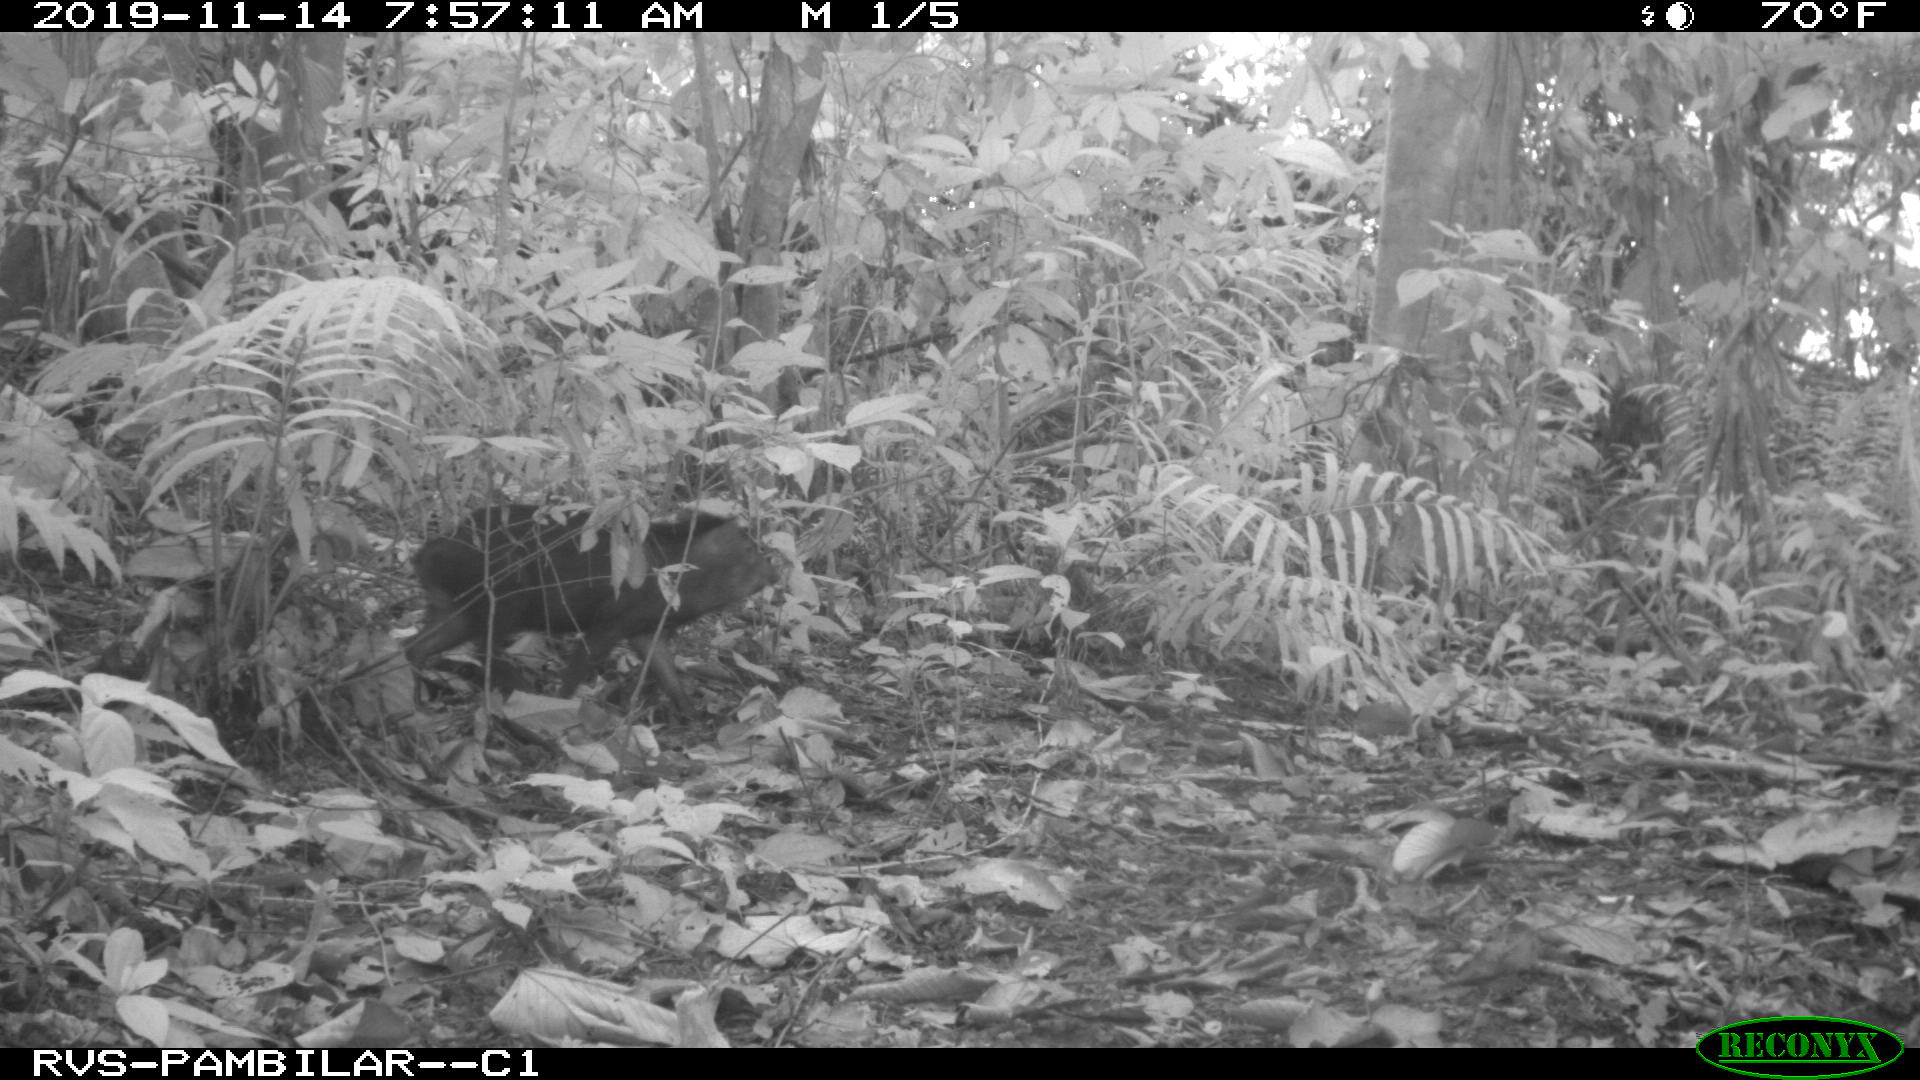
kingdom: Animalia
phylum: Chordata
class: Mammalia
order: Artiodactyla
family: Tayassuidae
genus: Pecari
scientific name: Pecari tajacu
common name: Collared peccary
